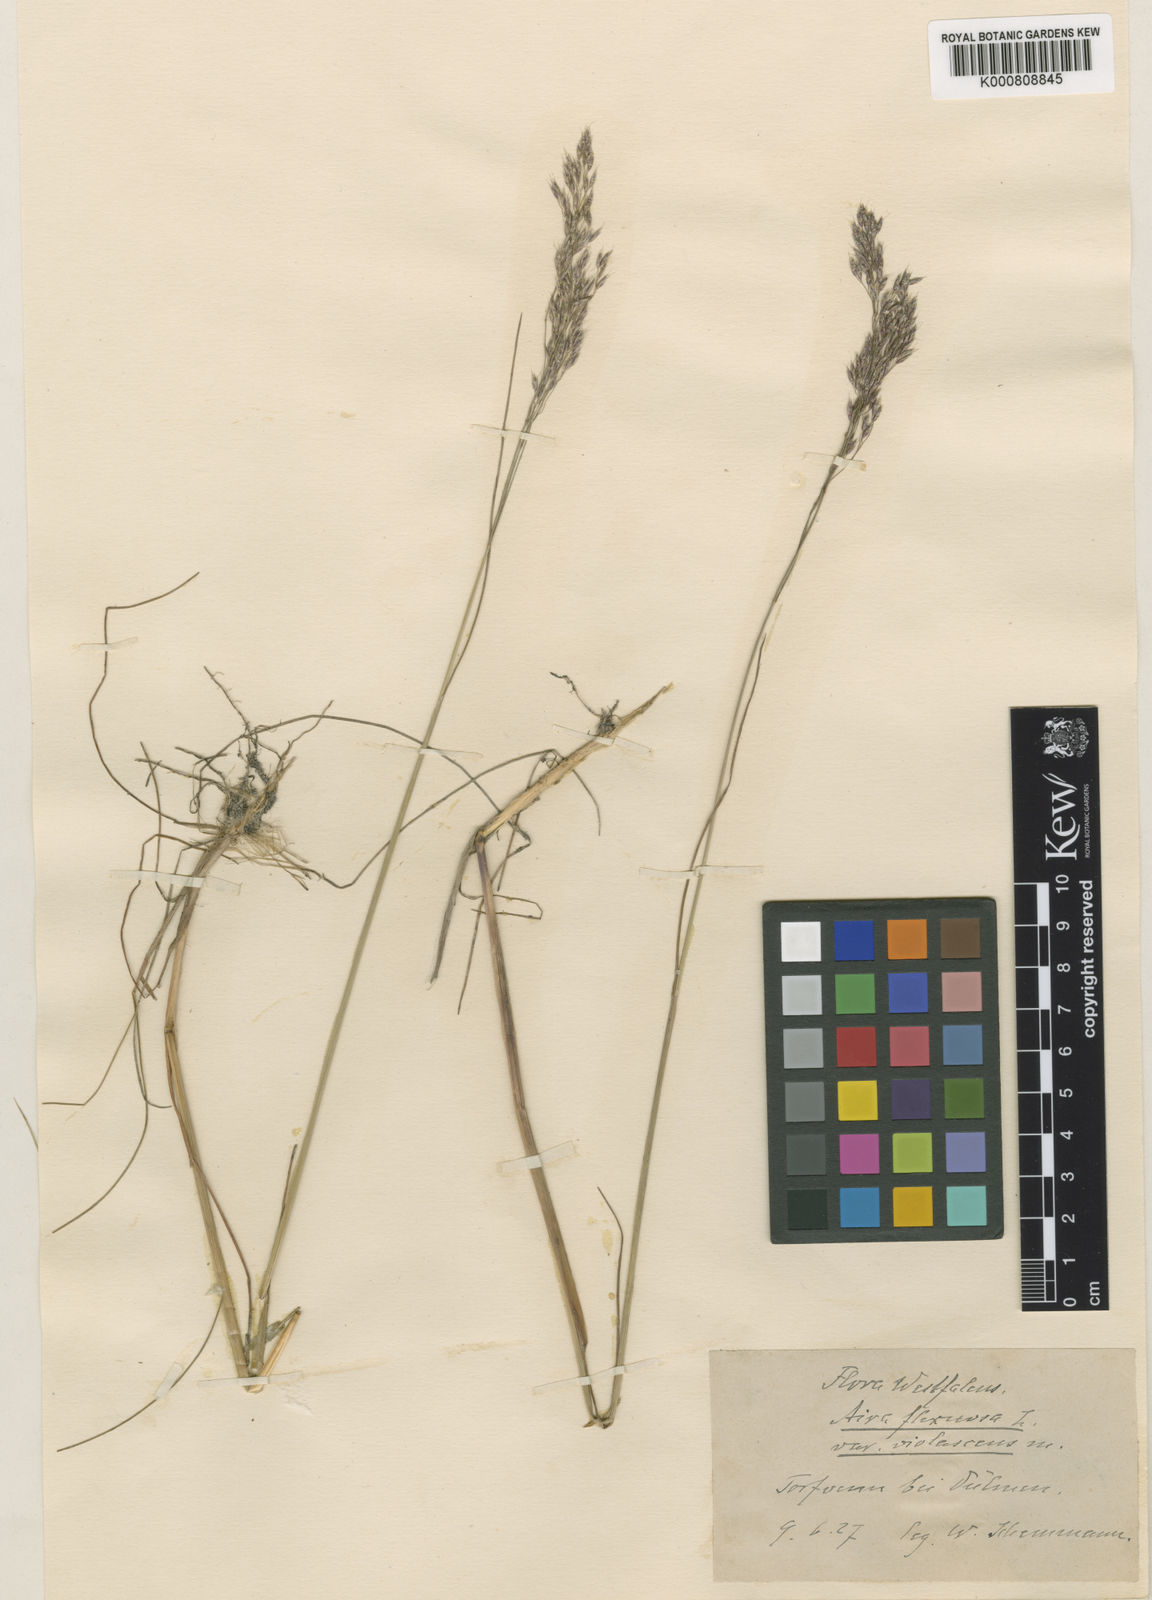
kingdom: Plantae
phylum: Tracheophyta
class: Liliopsida
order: Poales
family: Poaceae
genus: Avenella
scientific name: Avenella flexuosa
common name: Wavy hairgrass
